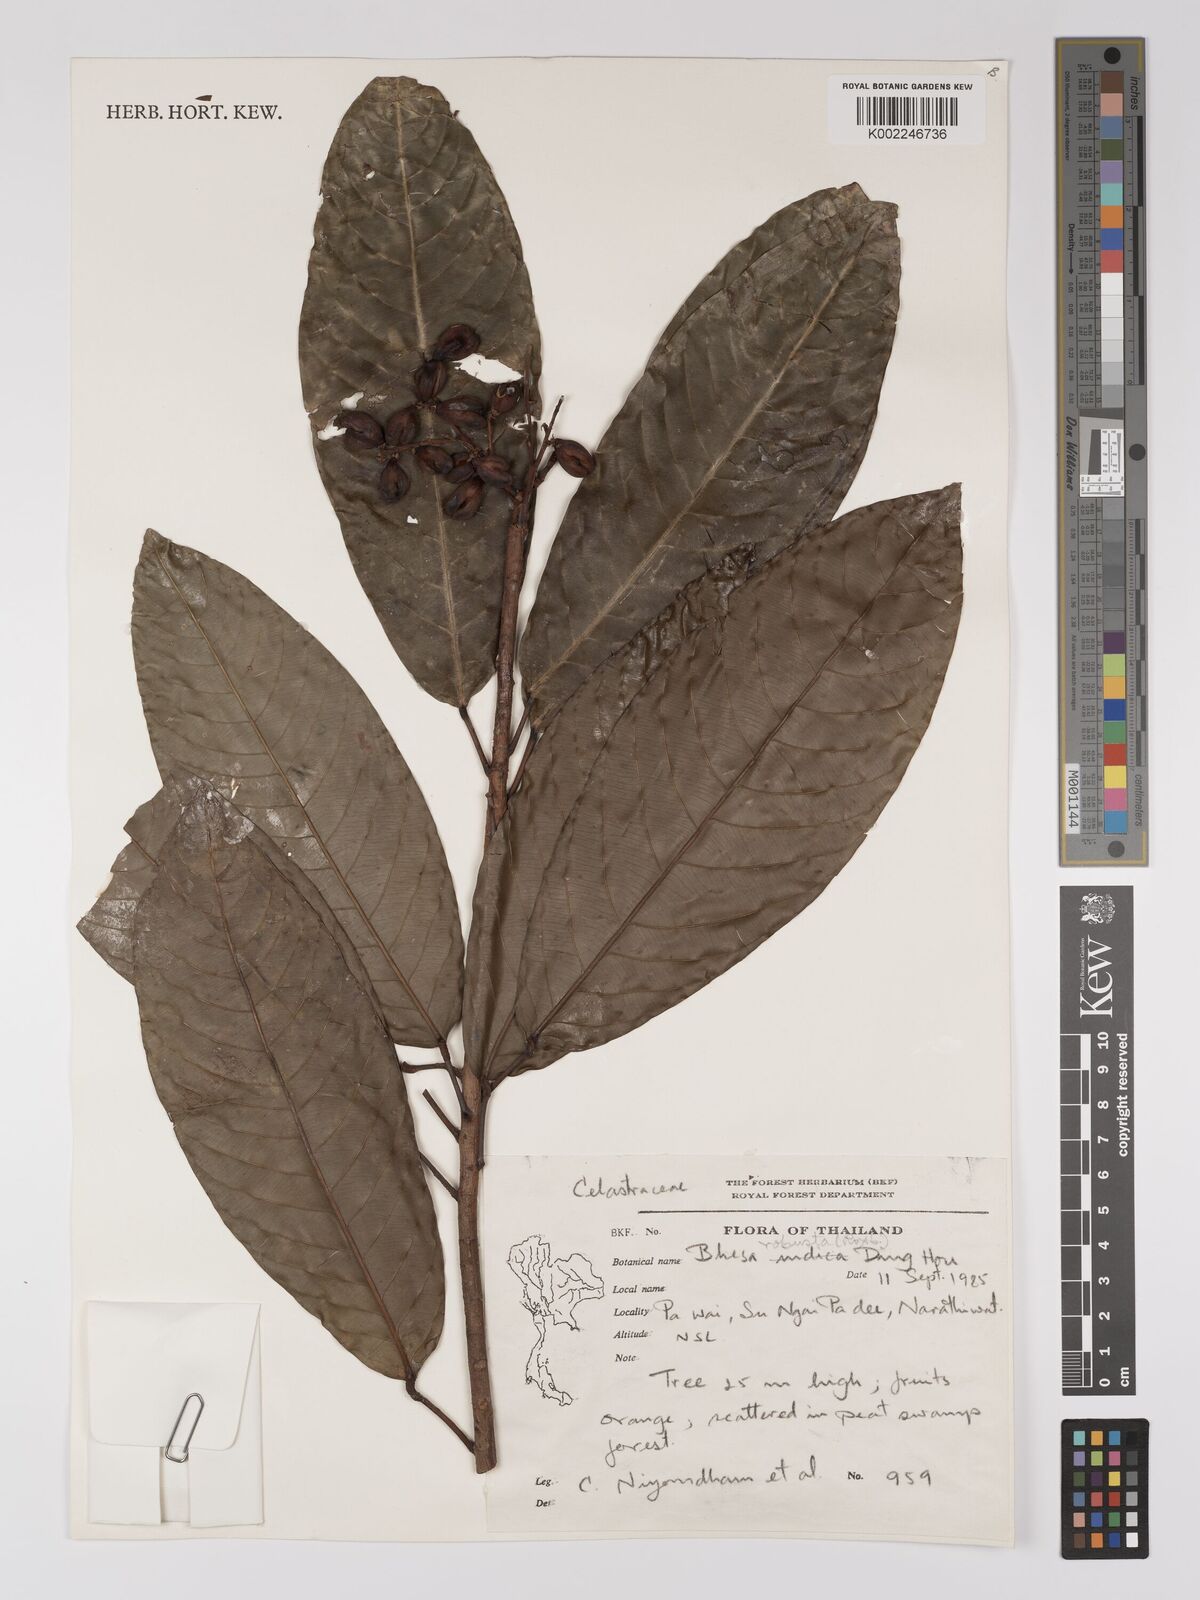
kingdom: Plantae
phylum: Tracheophyta
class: Magnoliopsida
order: Malpighiales
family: Centroplacaceae
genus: Bhesa
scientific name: Bhesa paniculata
